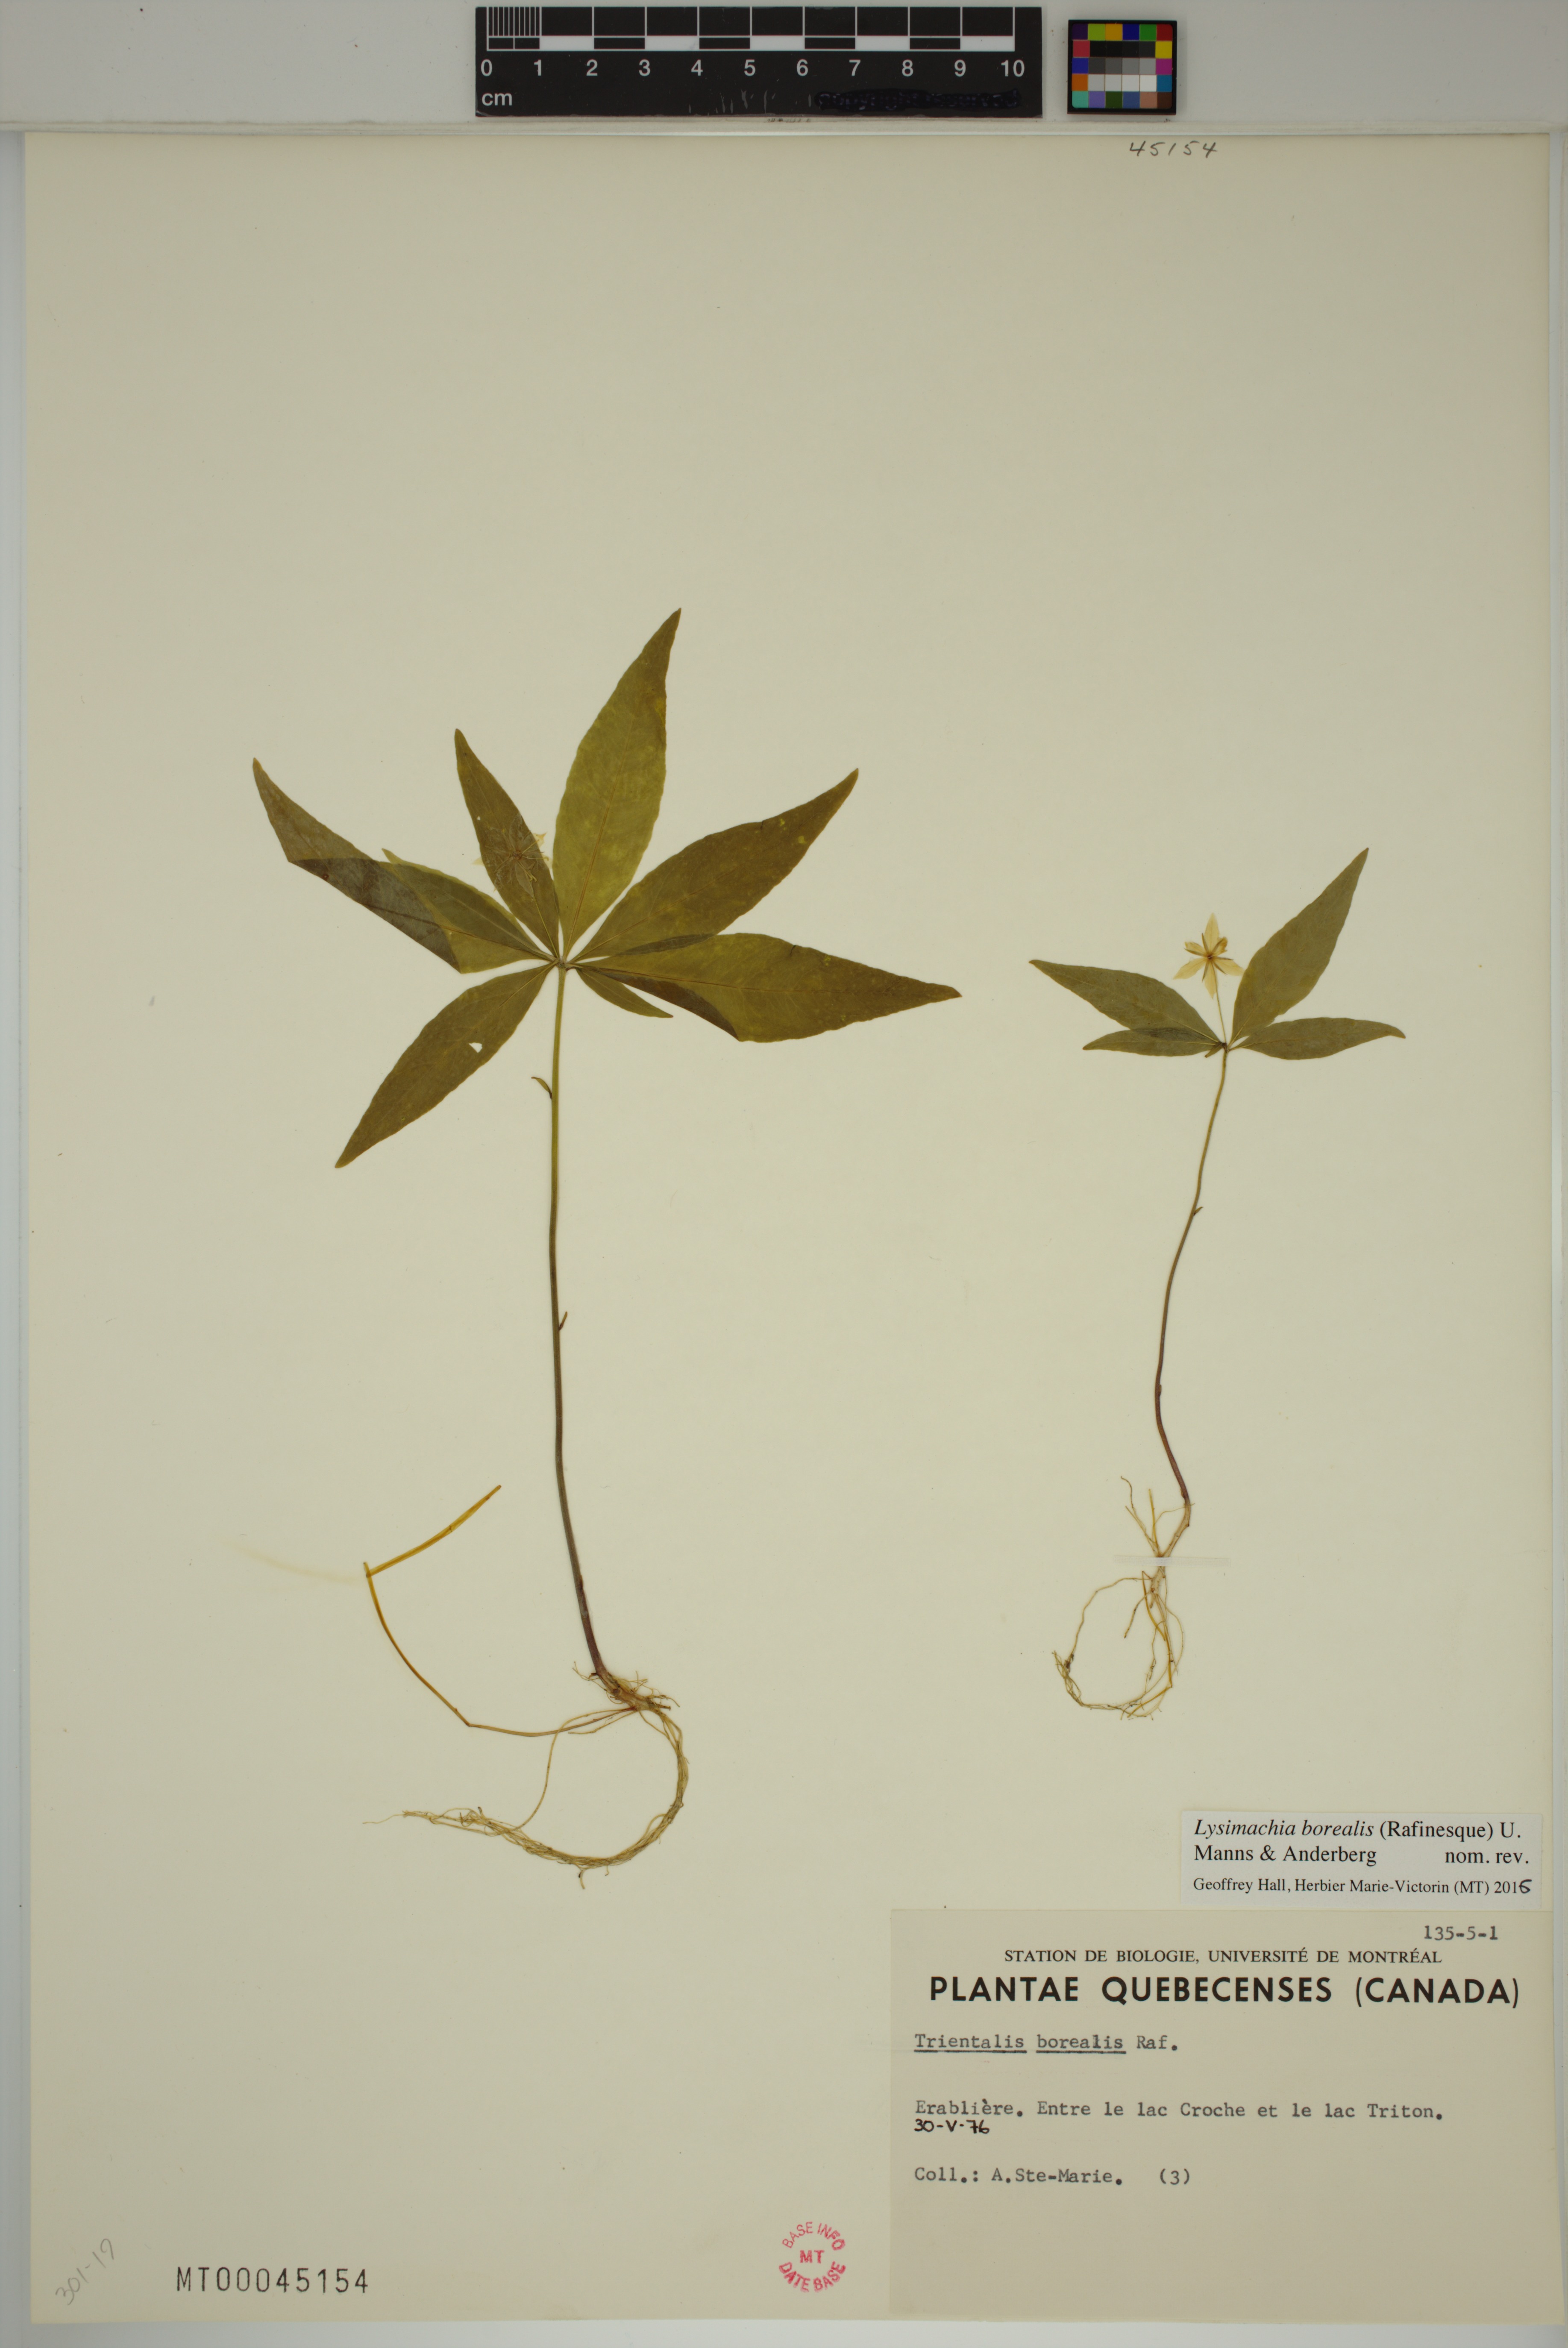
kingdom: Plantae
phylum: Tracheophyta
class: Magnoliopsida
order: Ericales
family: Primulaceae
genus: Lysimachia
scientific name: Lysimachia borealis
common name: American starflower
